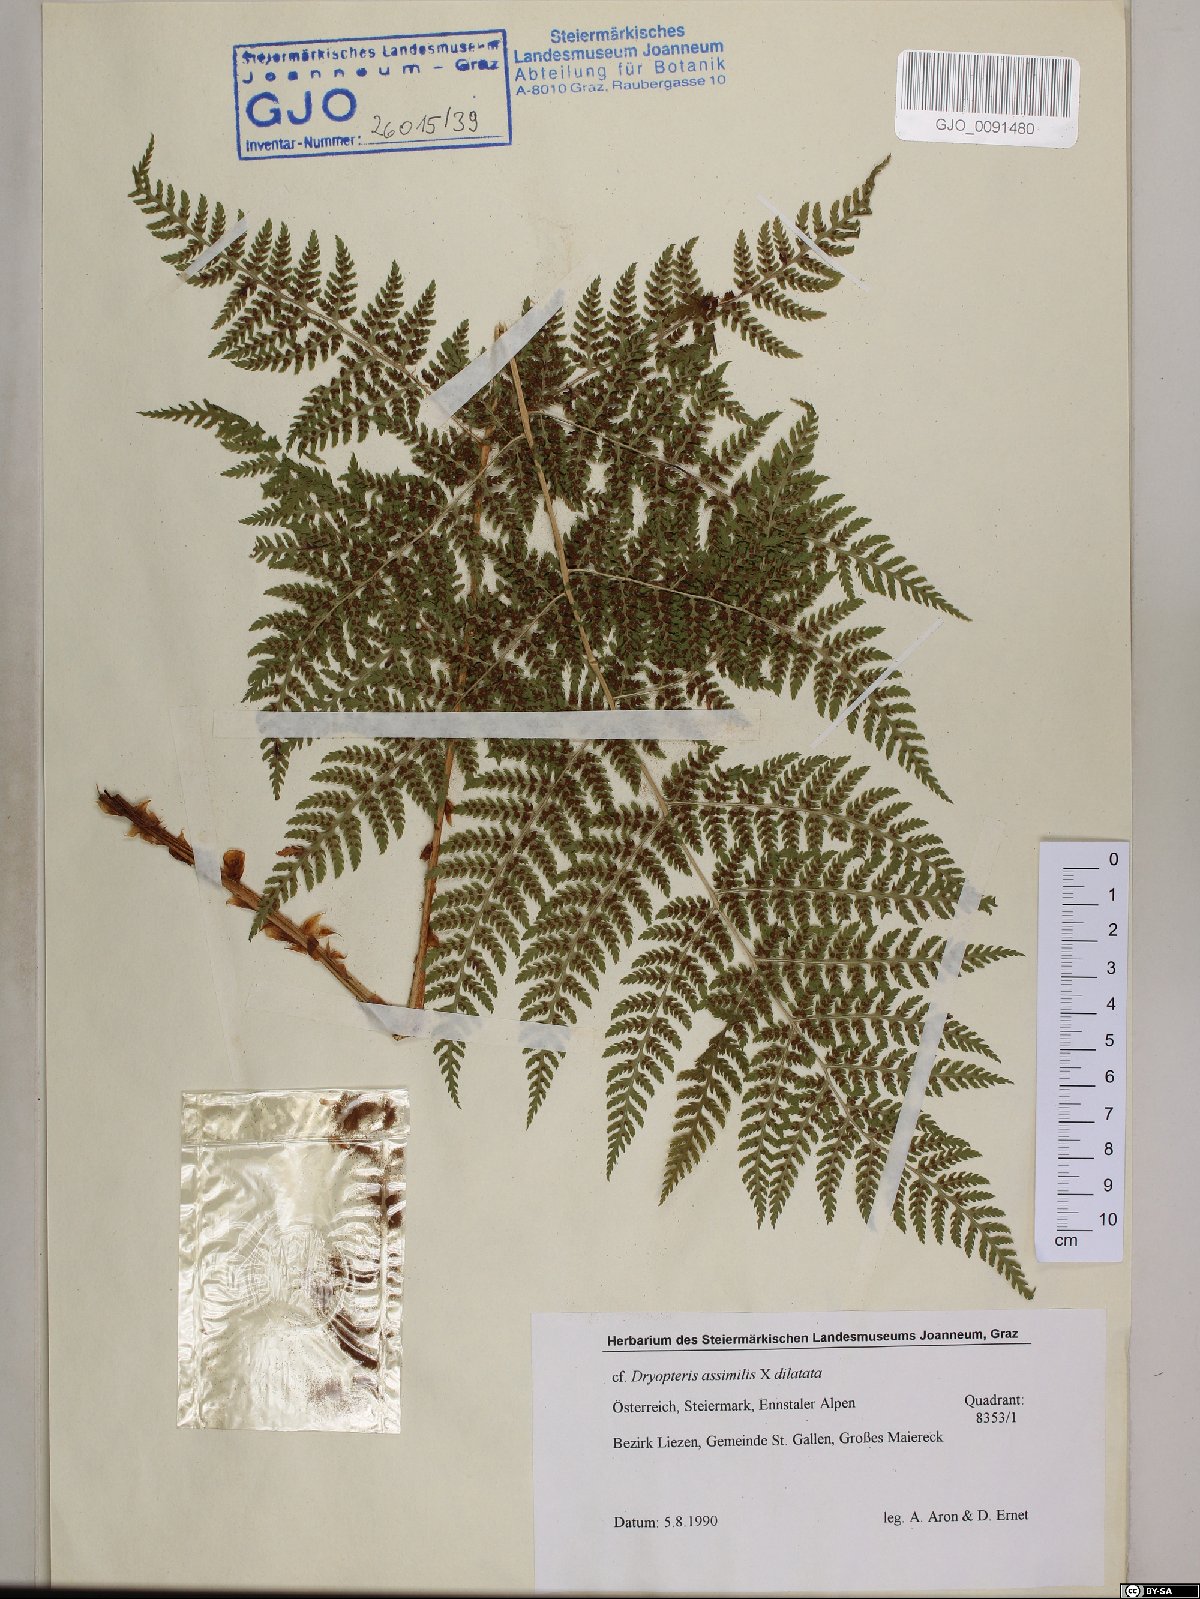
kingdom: Plantae
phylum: Tracheophyta
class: Polypodiopsida
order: Polypodiales
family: Dryopteridaceae
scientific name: Dryopteridaceae
